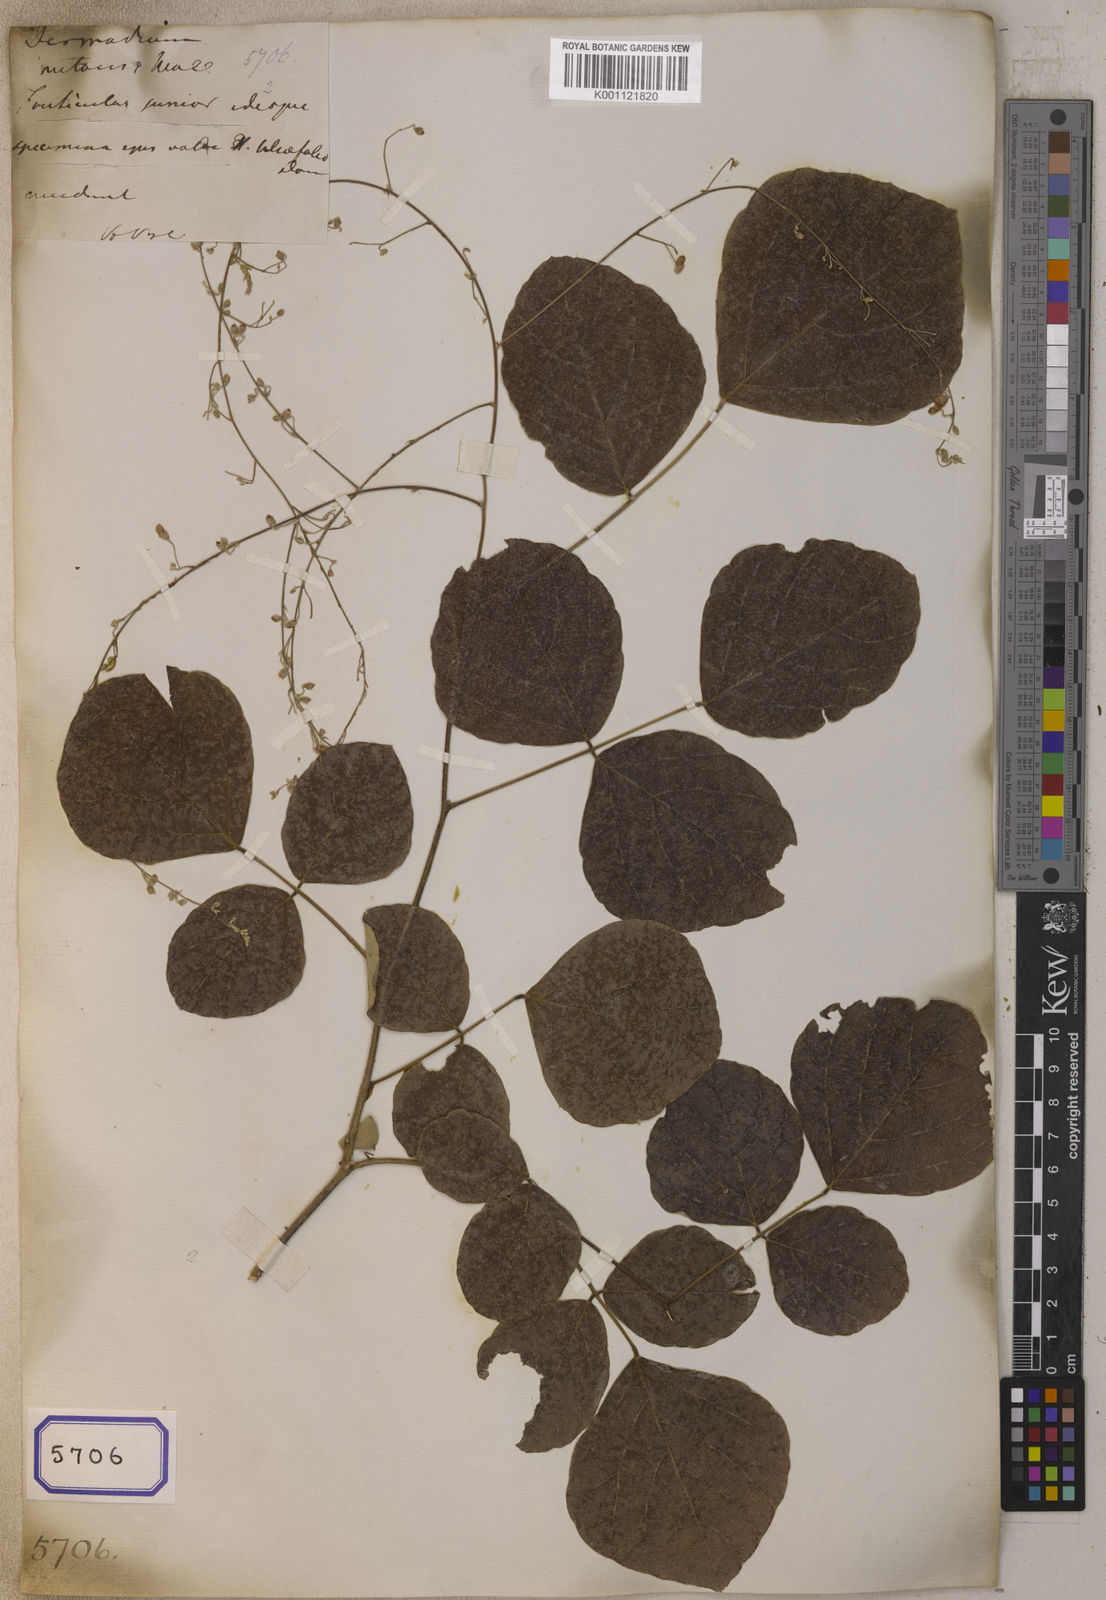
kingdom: Plantae
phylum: Tracheophyta
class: Magnoliopsida
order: Fabales
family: Fabaceae
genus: Desmodium
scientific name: Desmodium
